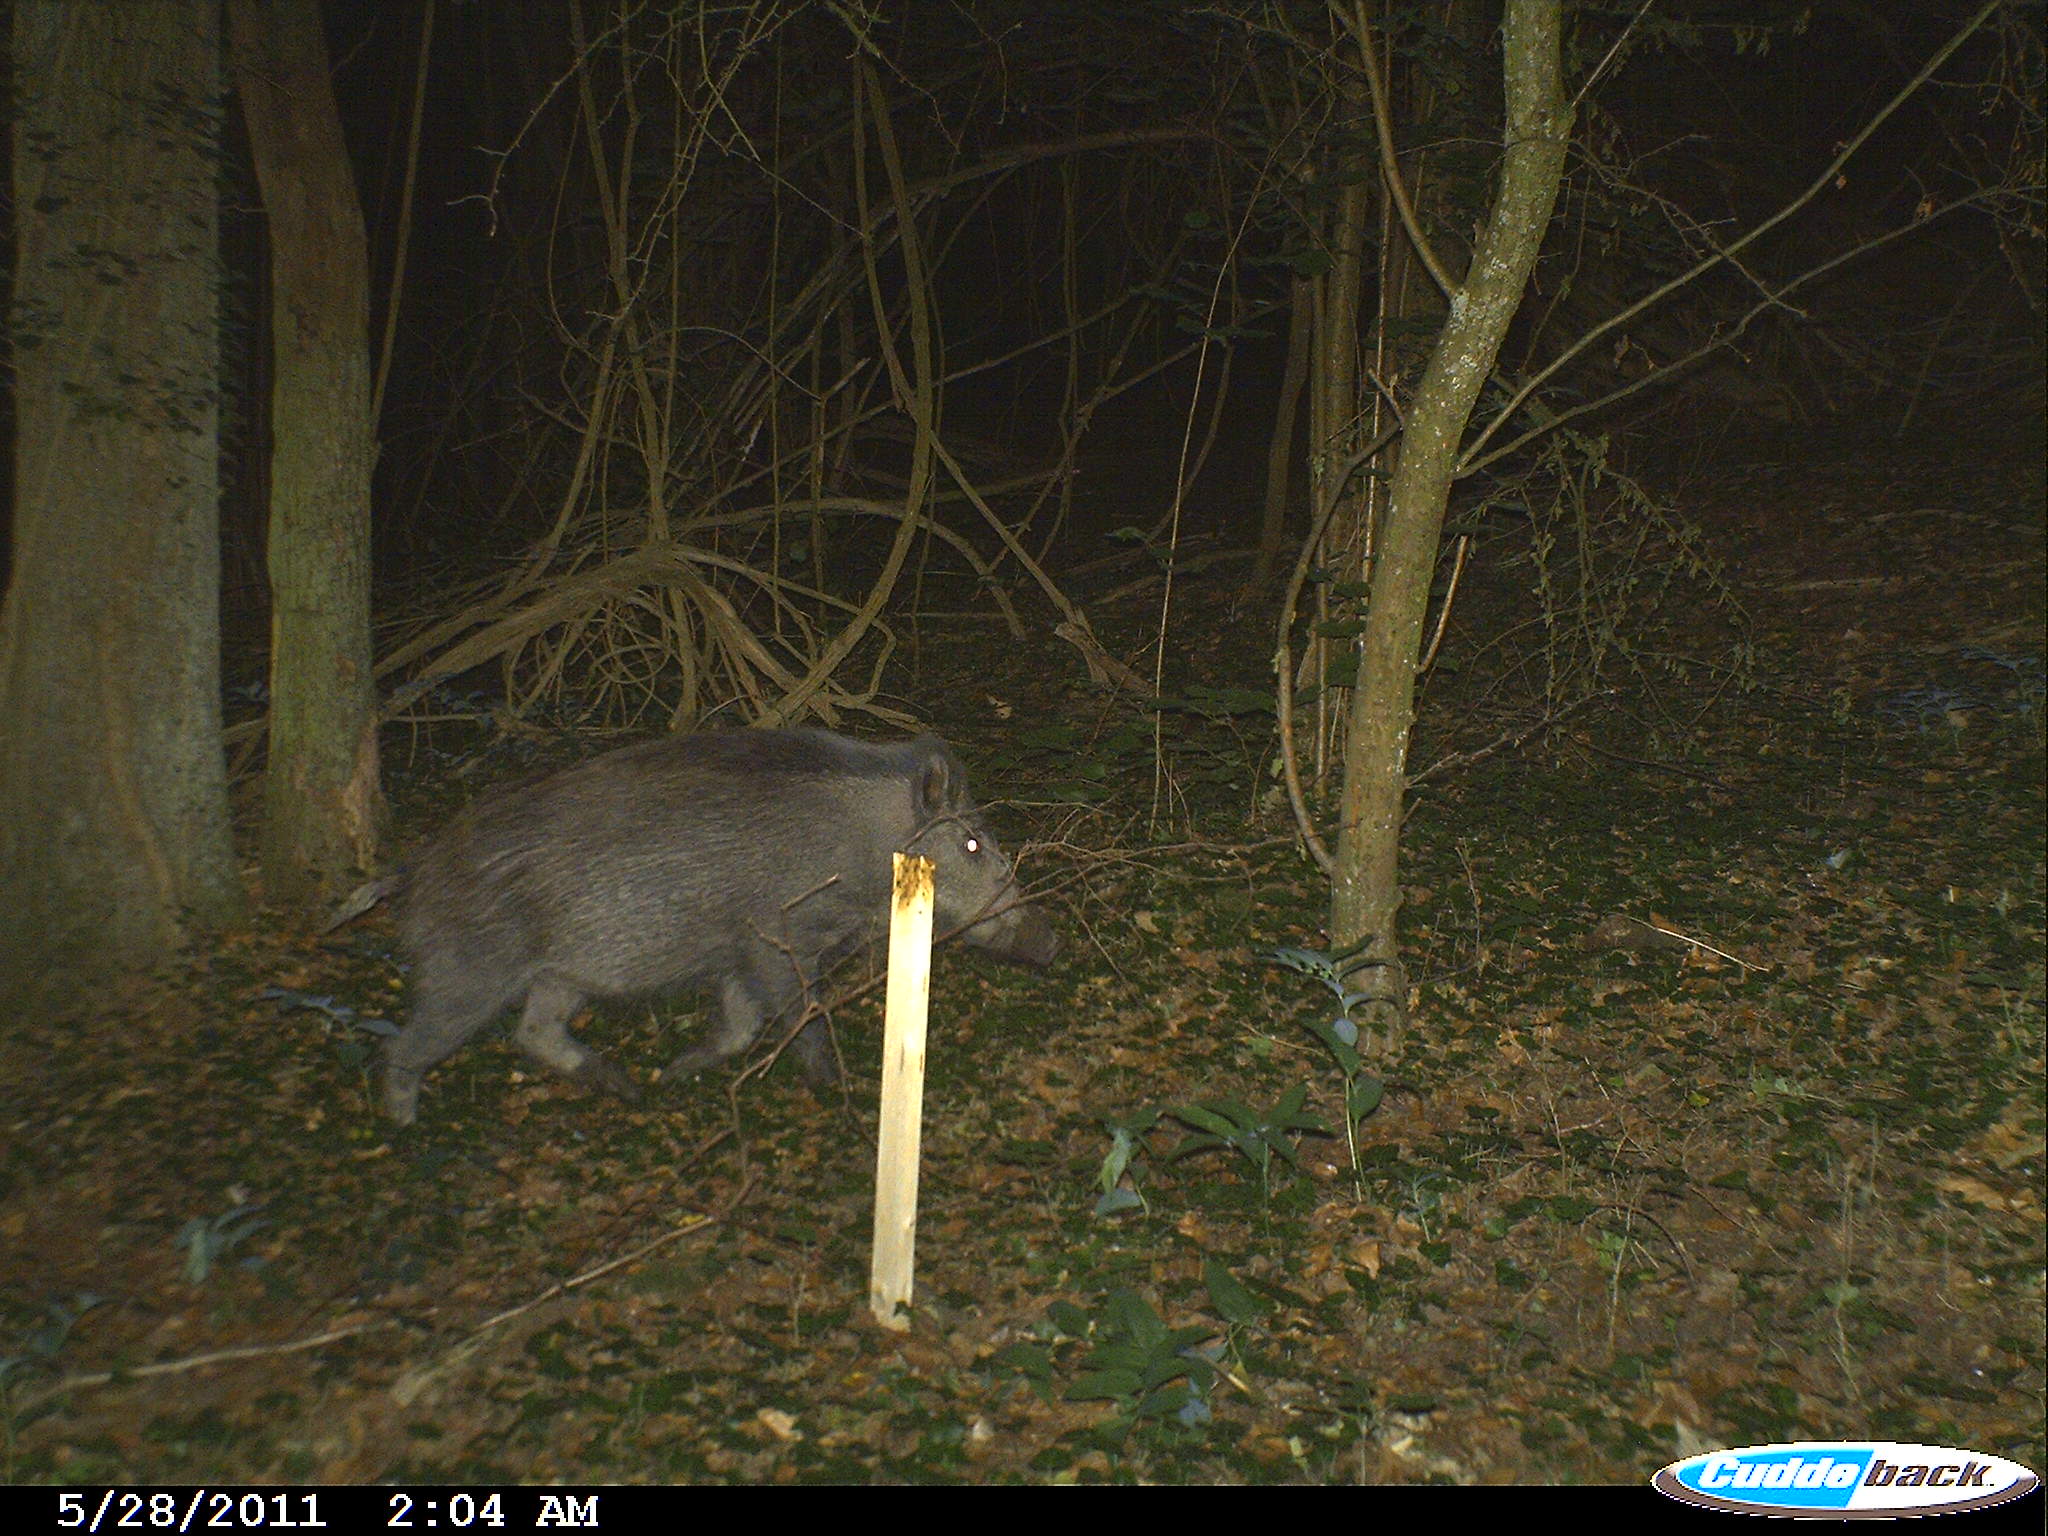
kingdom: Animalia
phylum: Chordata
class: Mammalia
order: Artiodactyla
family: Suidae
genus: Sus
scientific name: Sus scrofa
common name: Wild boar
